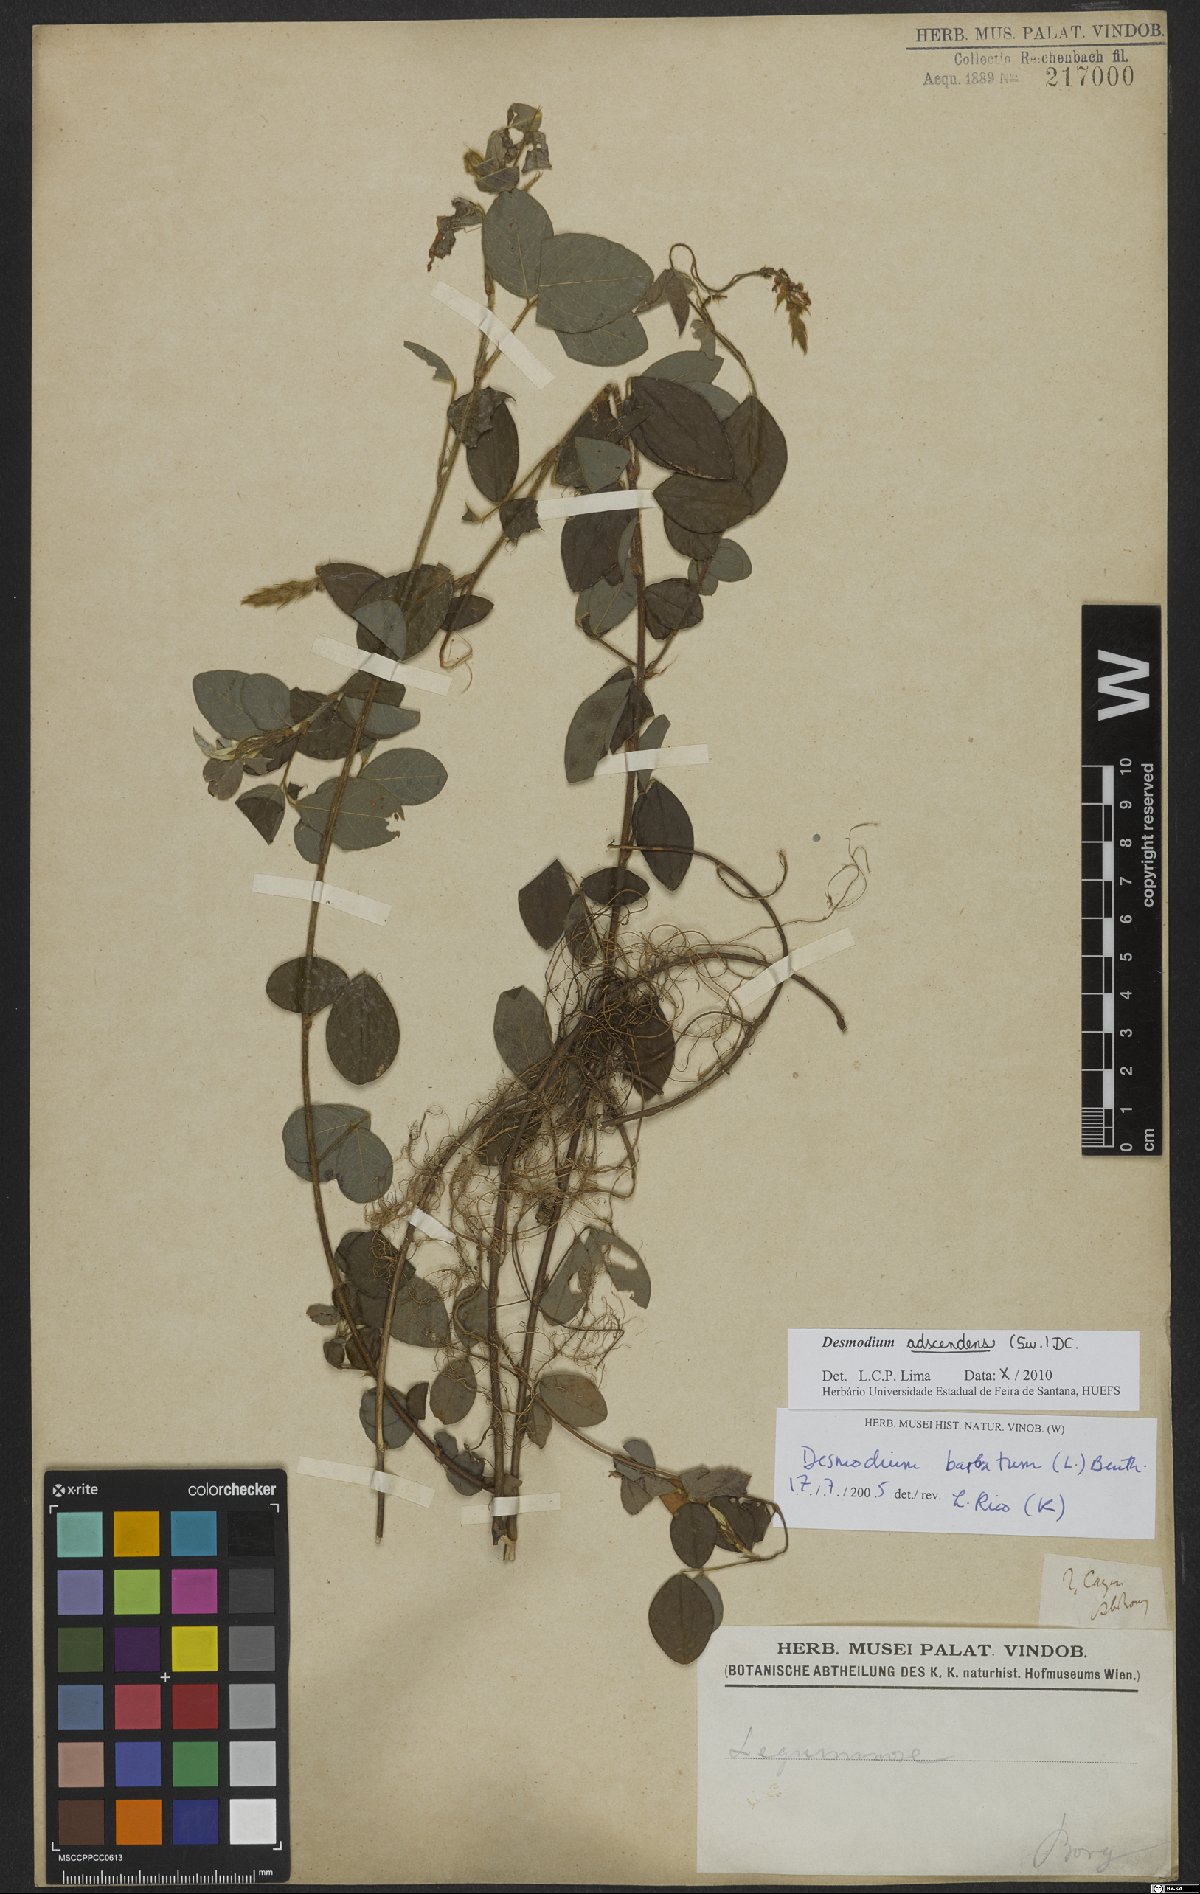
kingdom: Plantae
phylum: Tracheophyta
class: Magnoliopsida
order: Fabales
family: Fabaceae
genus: Grona
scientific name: Grona adscendens
